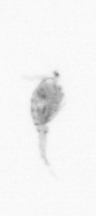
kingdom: Animalia
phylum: Arthropoda
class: Copepoda
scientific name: Copepoda
